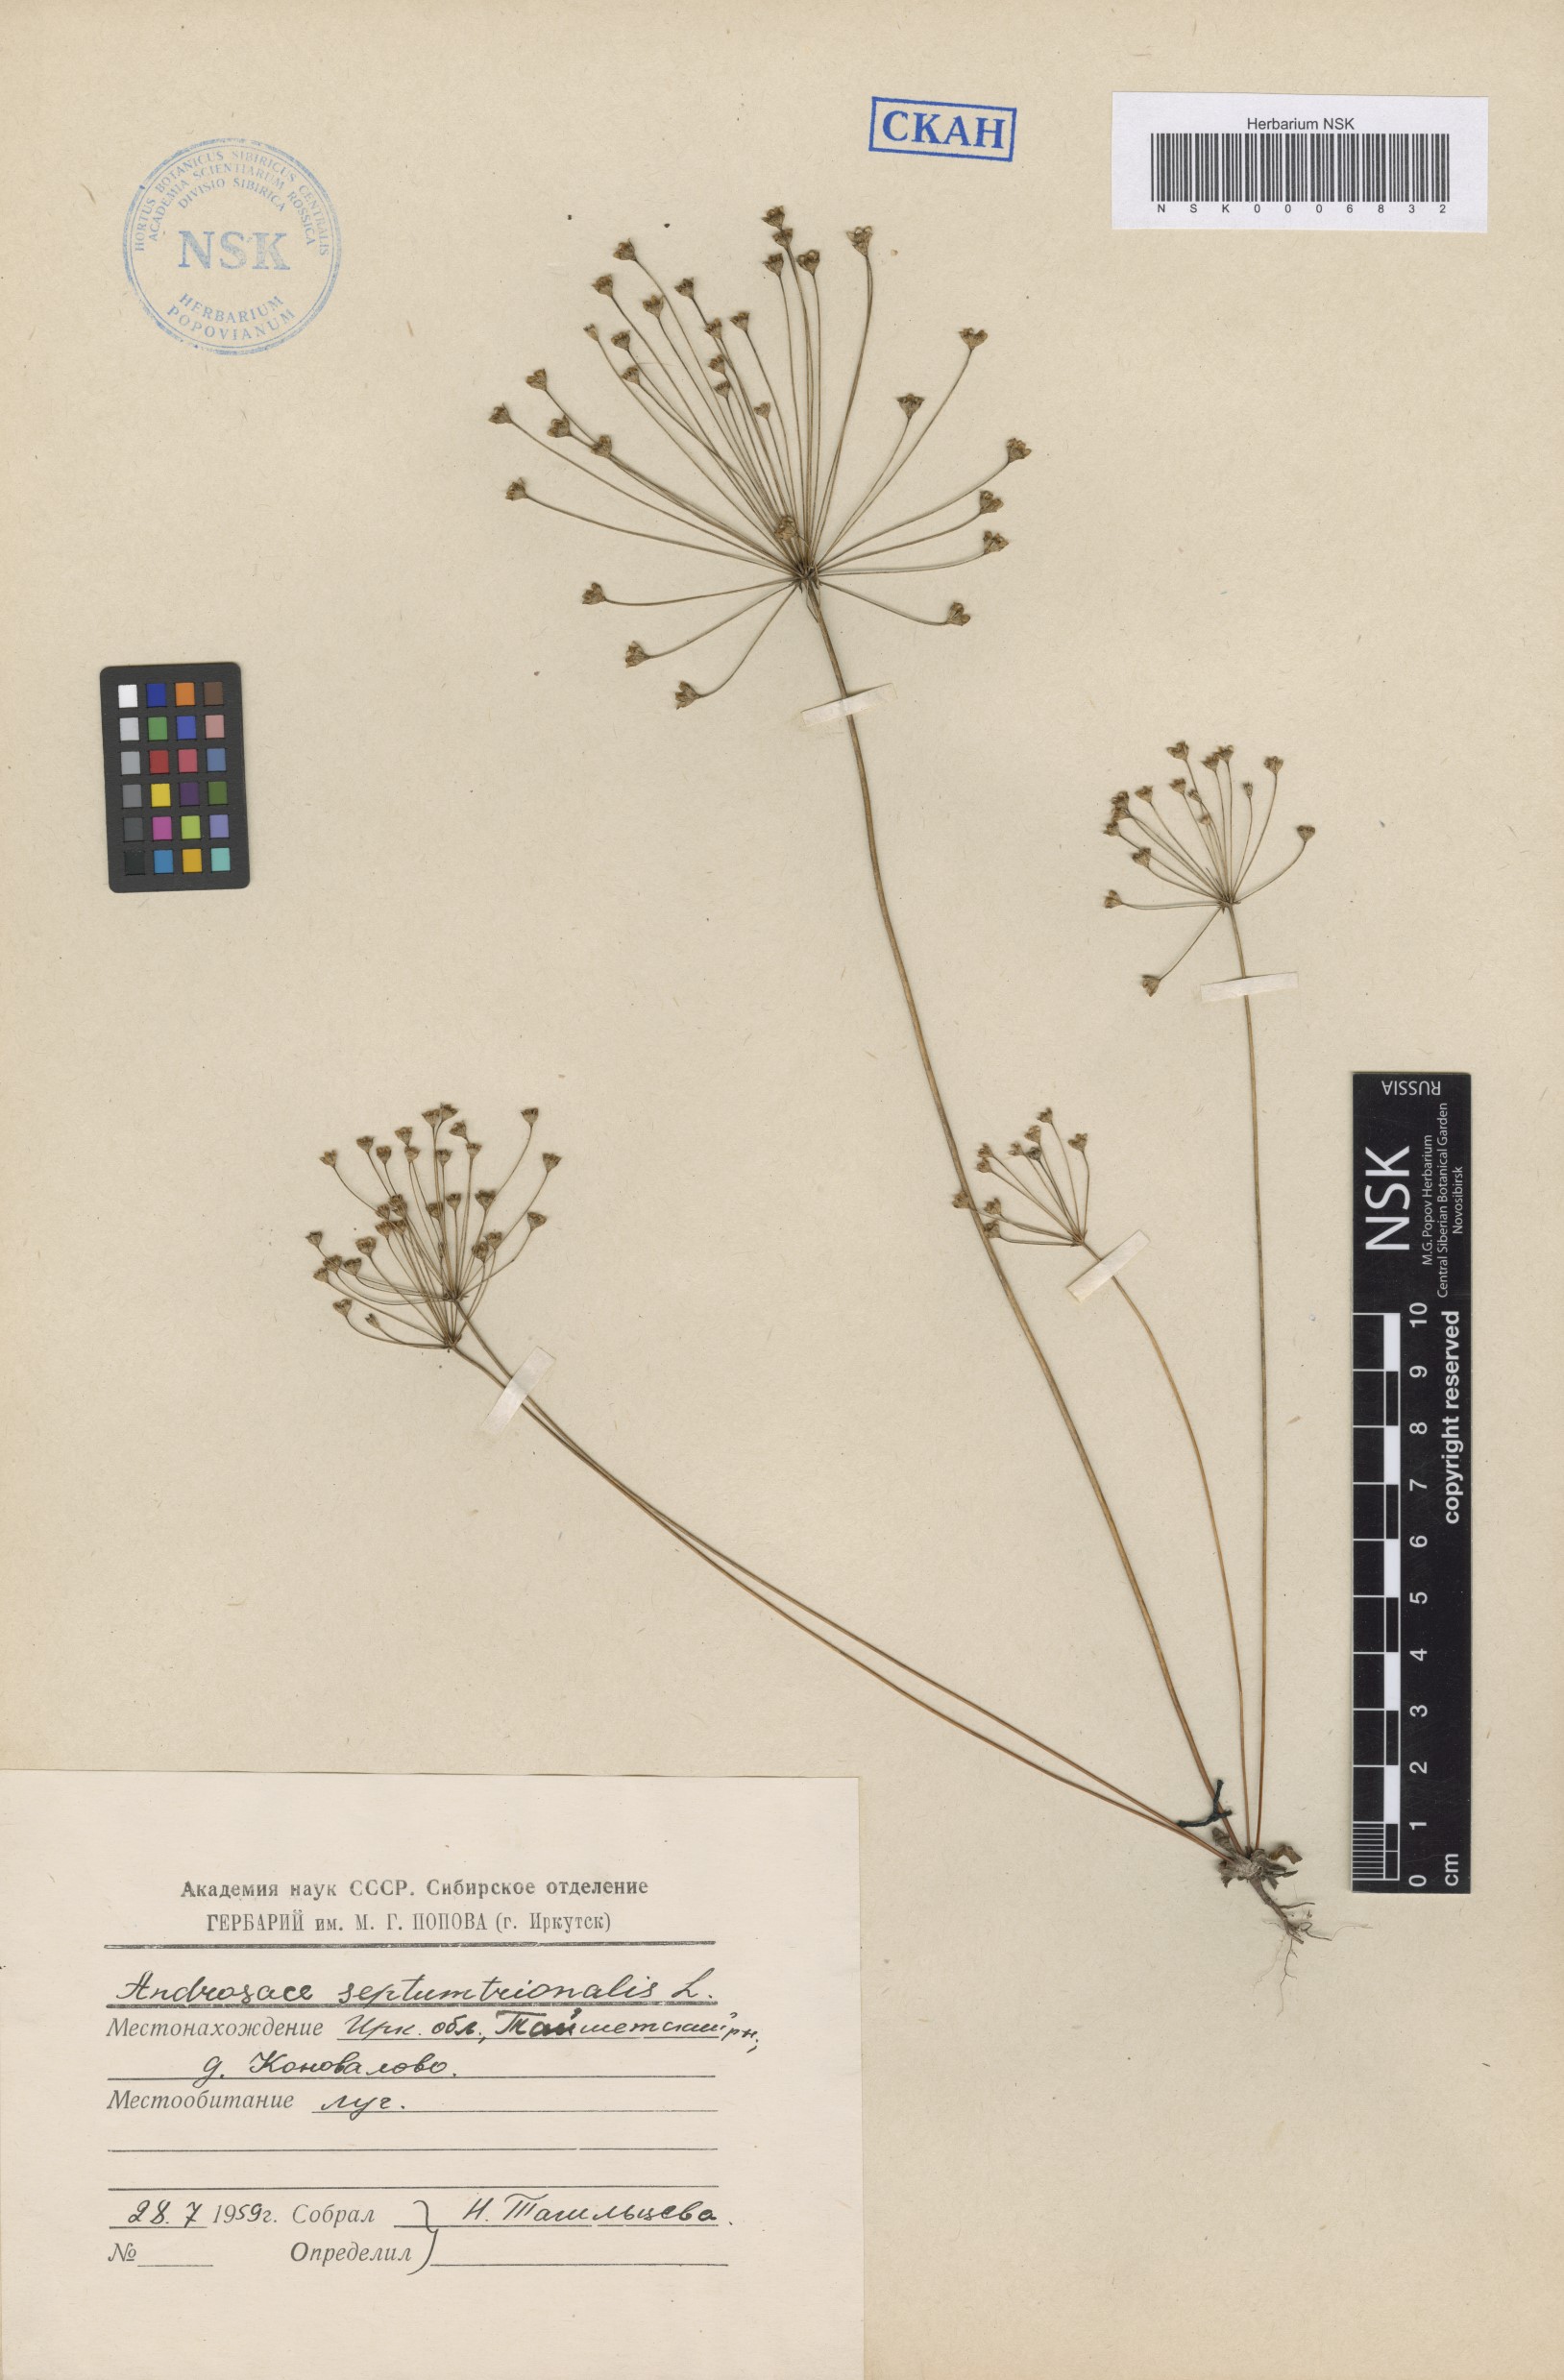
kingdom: Plantae
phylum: Tracheophyta
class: Magnoliopsida
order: Ericales
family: Primulaceae
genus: Androsace
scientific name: Androsace septentrionalis
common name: Hairy northern fairy-candelabra
